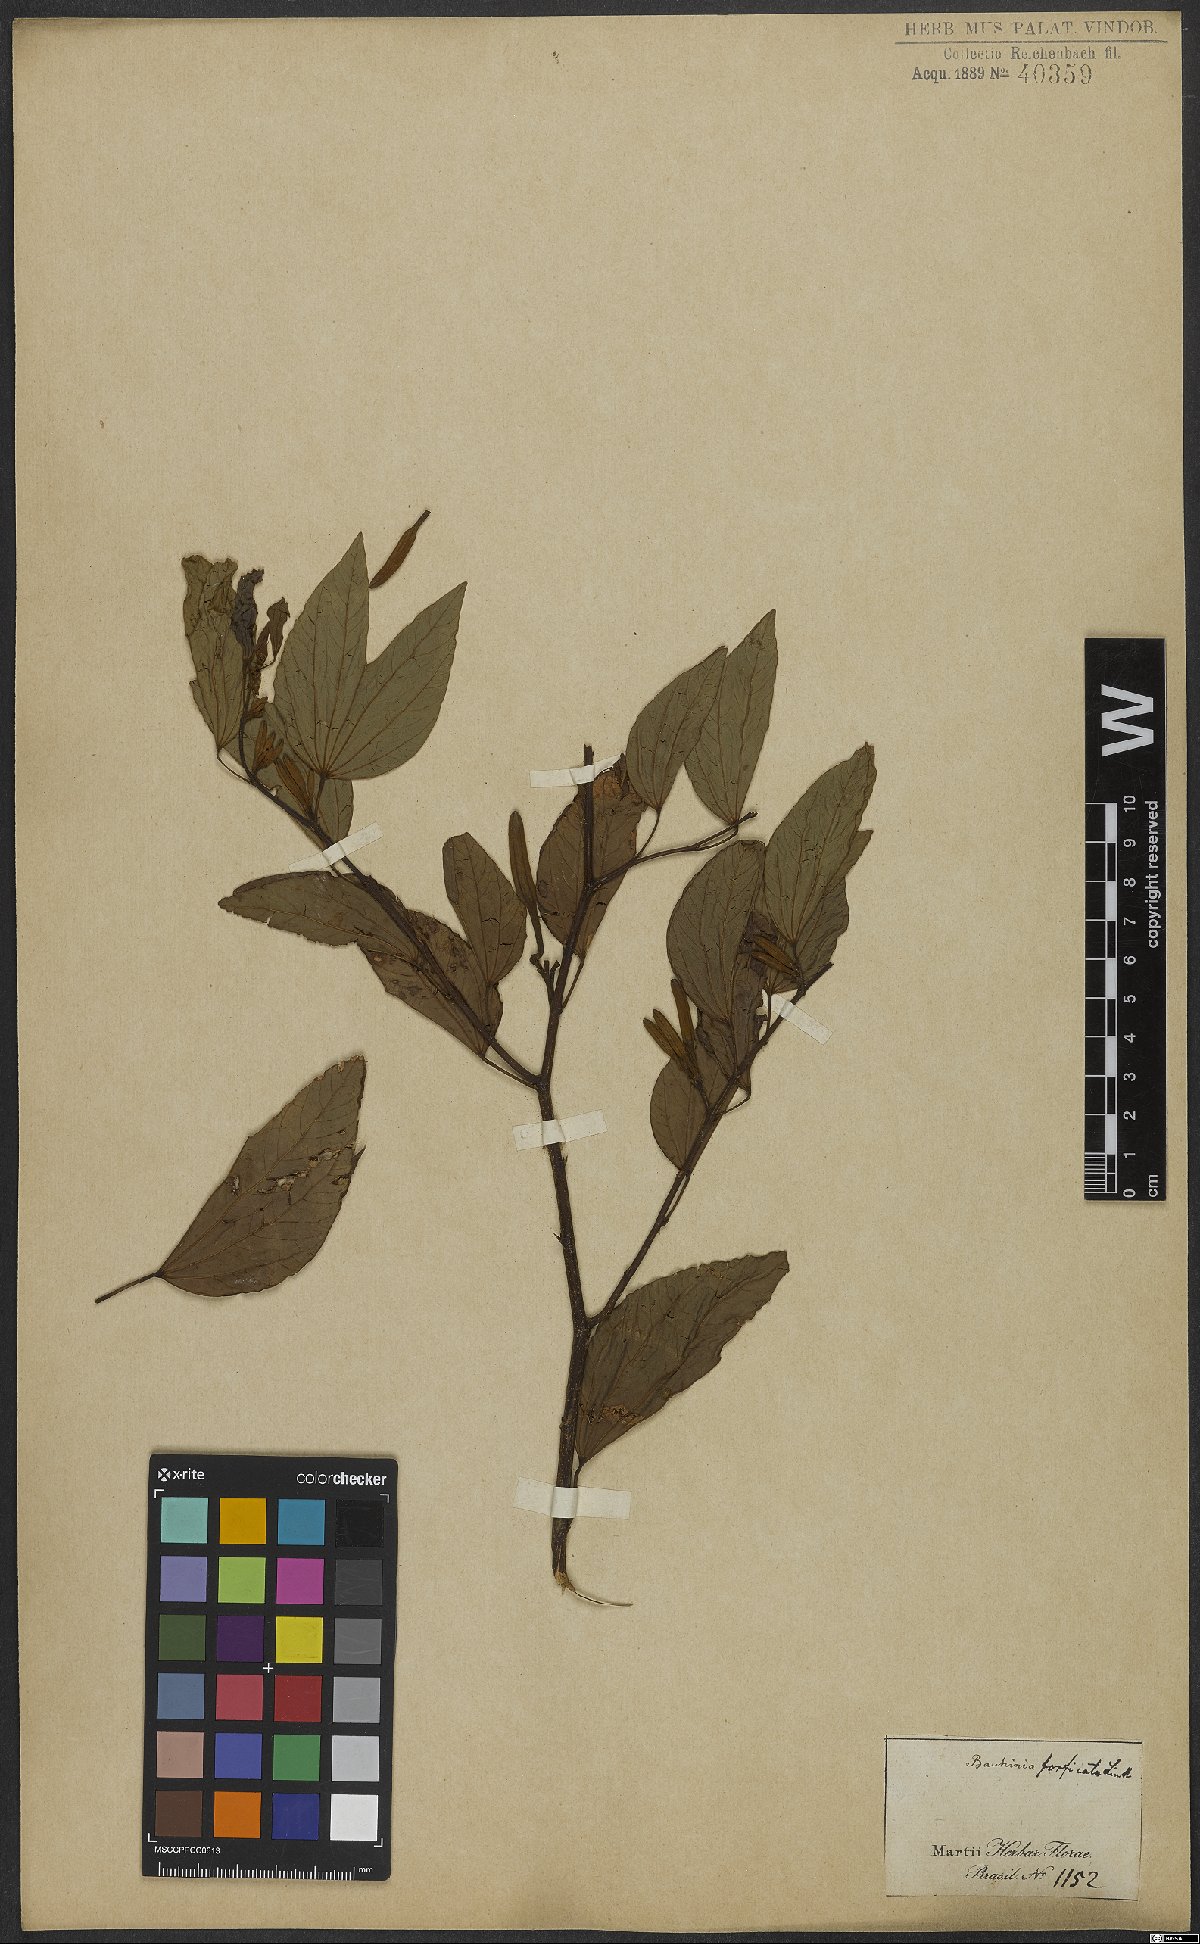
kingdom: Plantae
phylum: Tracheophyta
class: Magnoliopsida
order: Fabales
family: Fabaceae
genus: Bauhinia
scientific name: Bauhinia forficata
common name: Orchid tree
